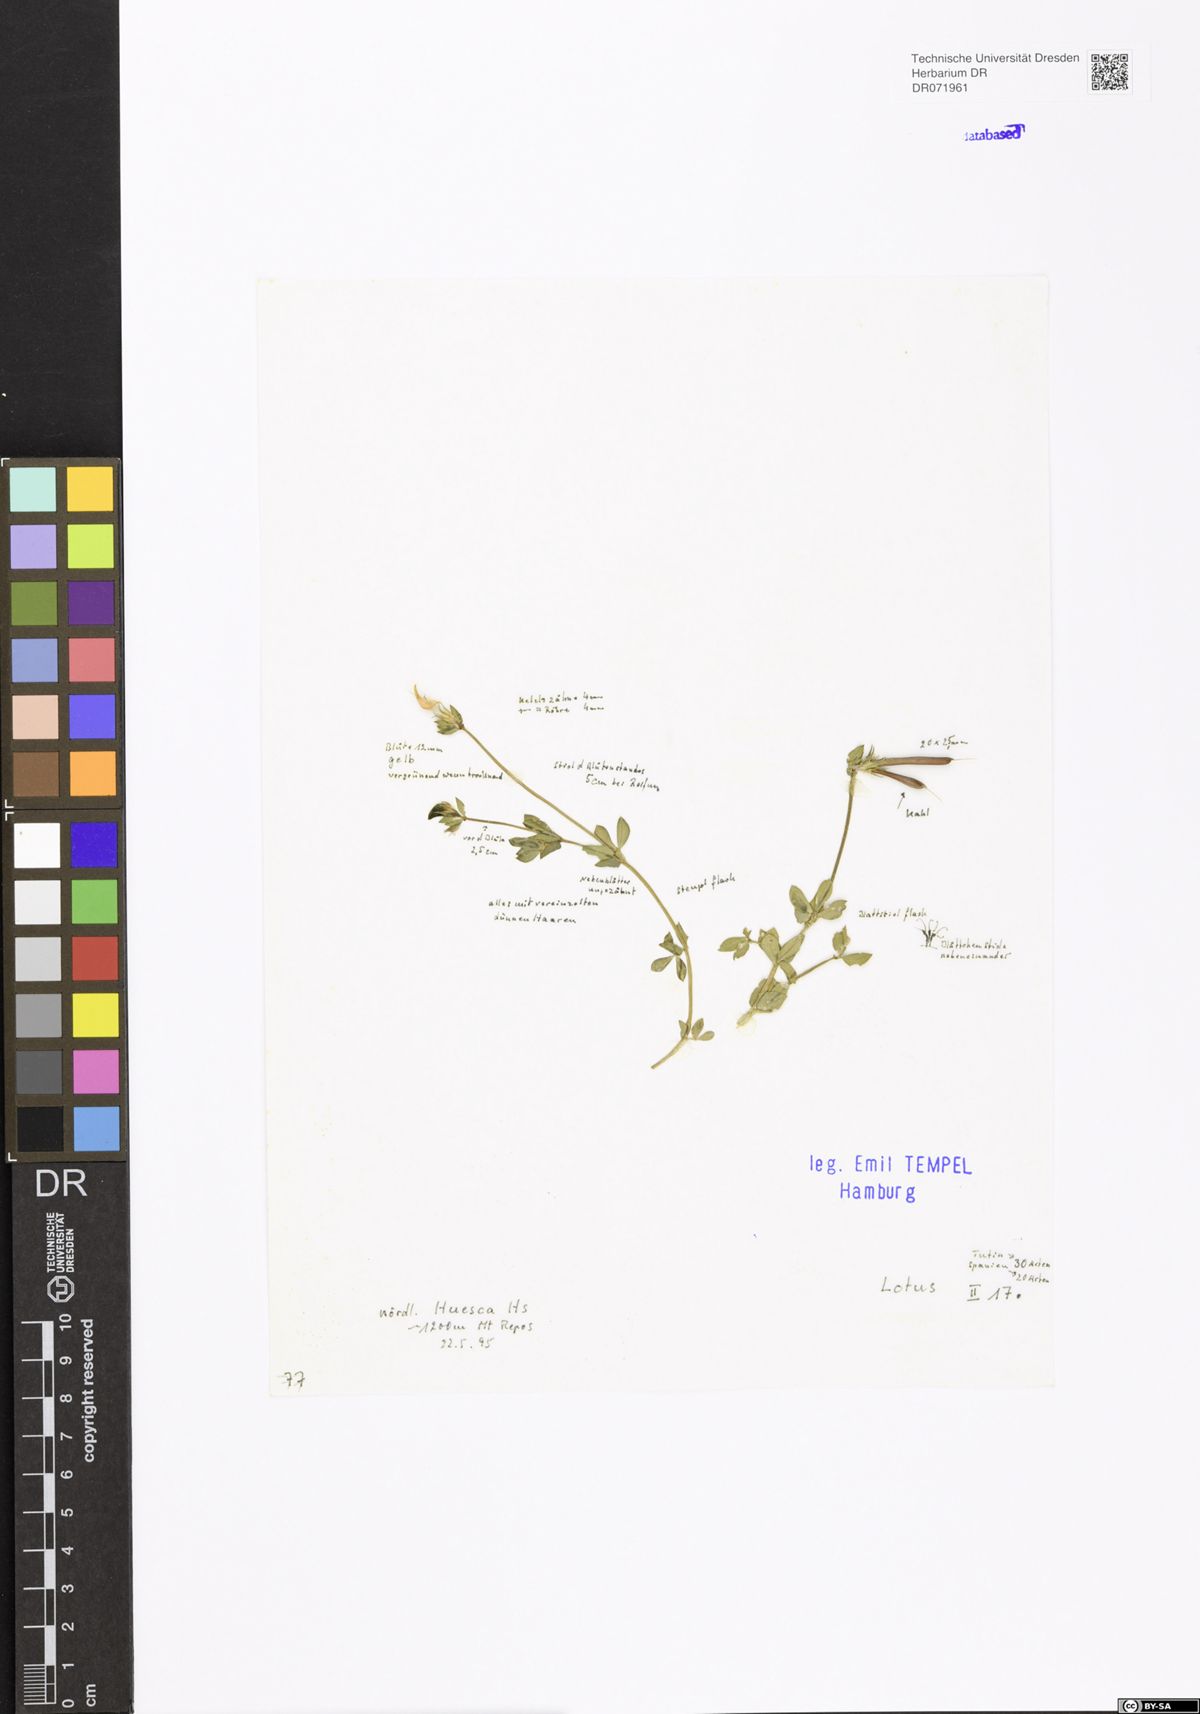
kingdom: Plantae
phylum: Tracheophyta
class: Magnoliopsida
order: Fabales
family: Fabaceae
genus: Lotus
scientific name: Lotus
